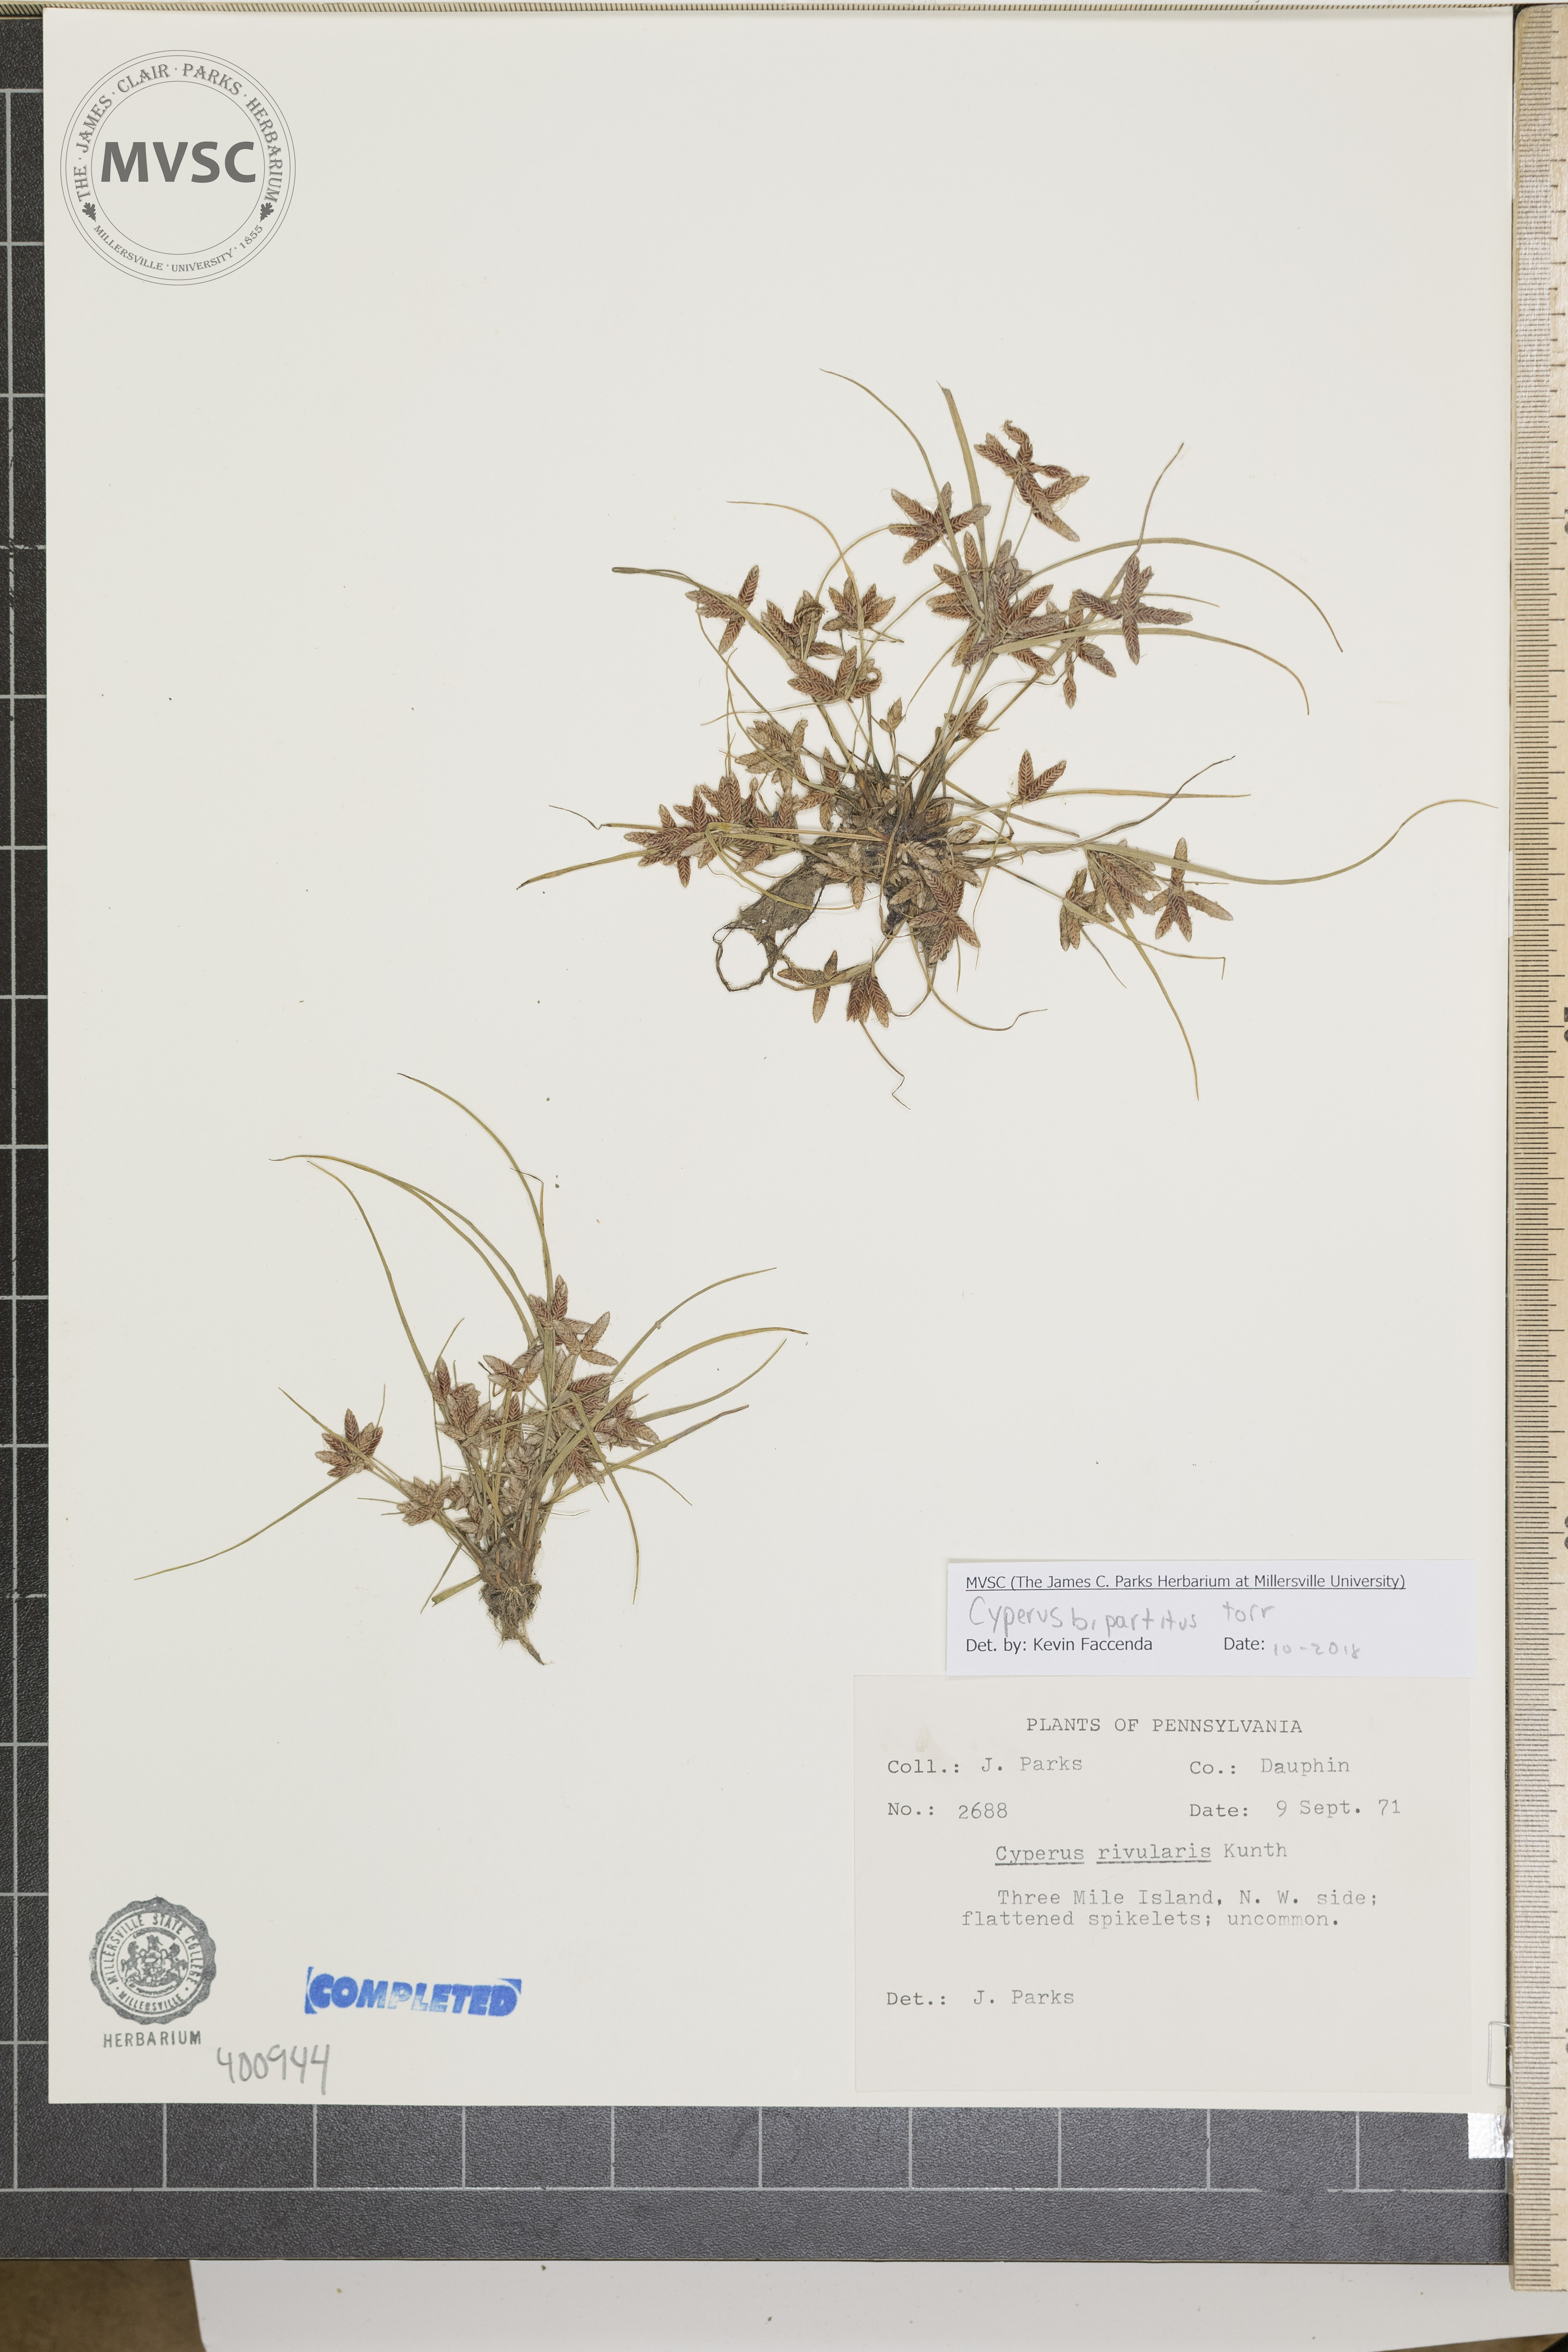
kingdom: Plantae
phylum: Tracheophyta
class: Liliopsida
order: Poales
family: Cyperaceae
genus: Cyperus
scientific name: Cyperus bipartitus
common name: sedge
